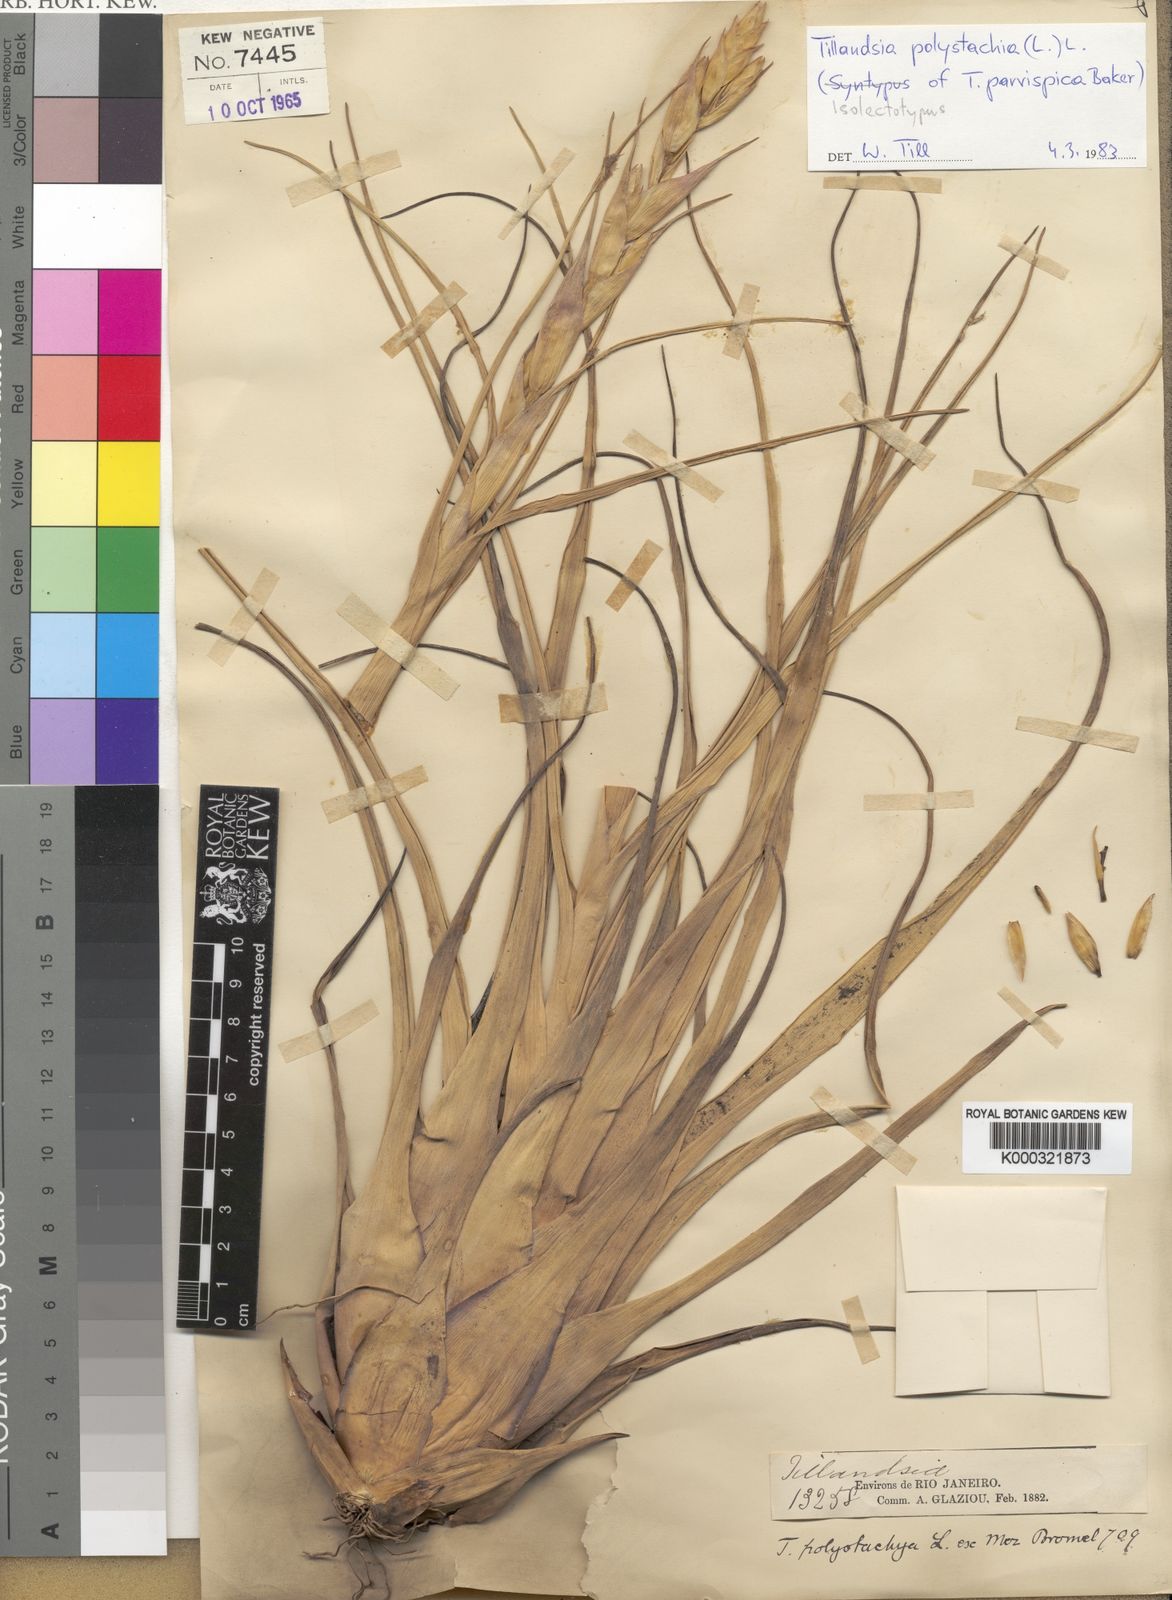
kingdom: Plantae
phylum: Tracheophyta
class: Liliopsida
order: Poales
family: Bromeliaceae
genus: Tillandsia
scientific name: Tillandsia polystachia
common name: Airplant
